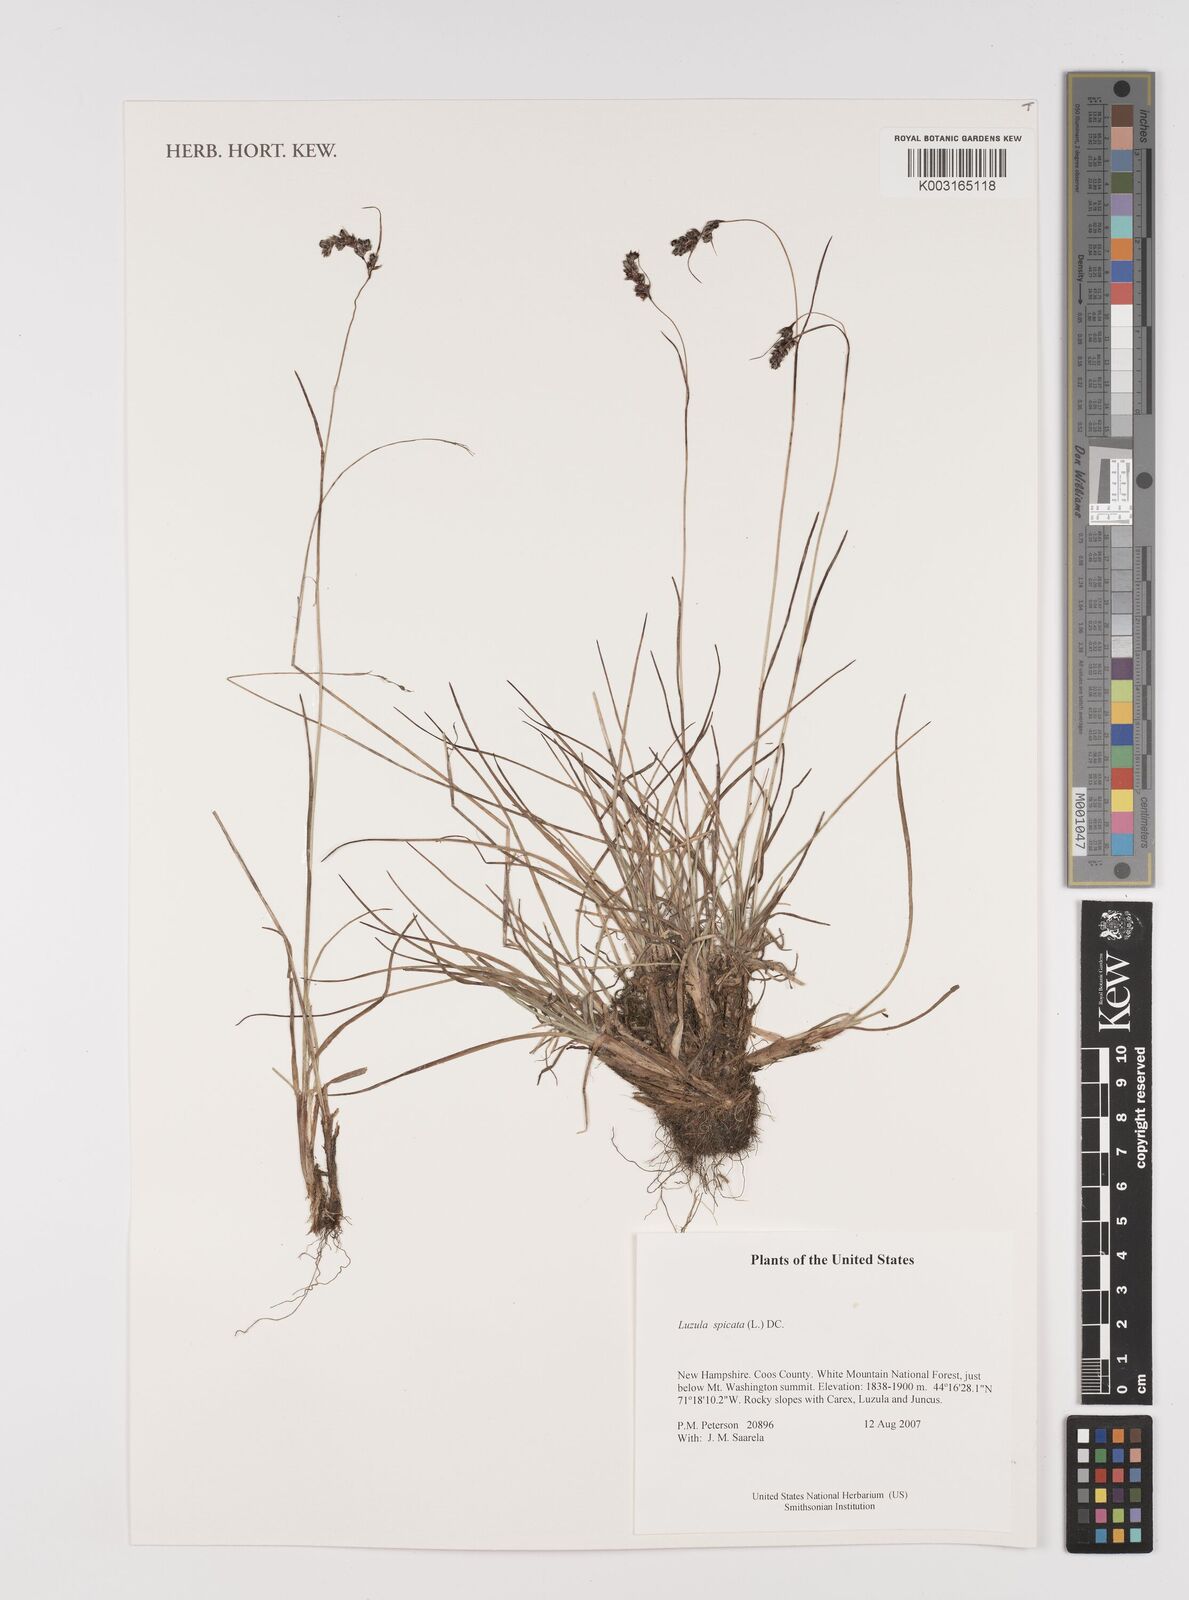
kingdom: Plantae
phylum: Tracheophyta
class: Liliopsida
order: Poales
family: Juncaceae
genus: Luzula
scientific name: Luzula spicata
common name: Spiked wood-rush
